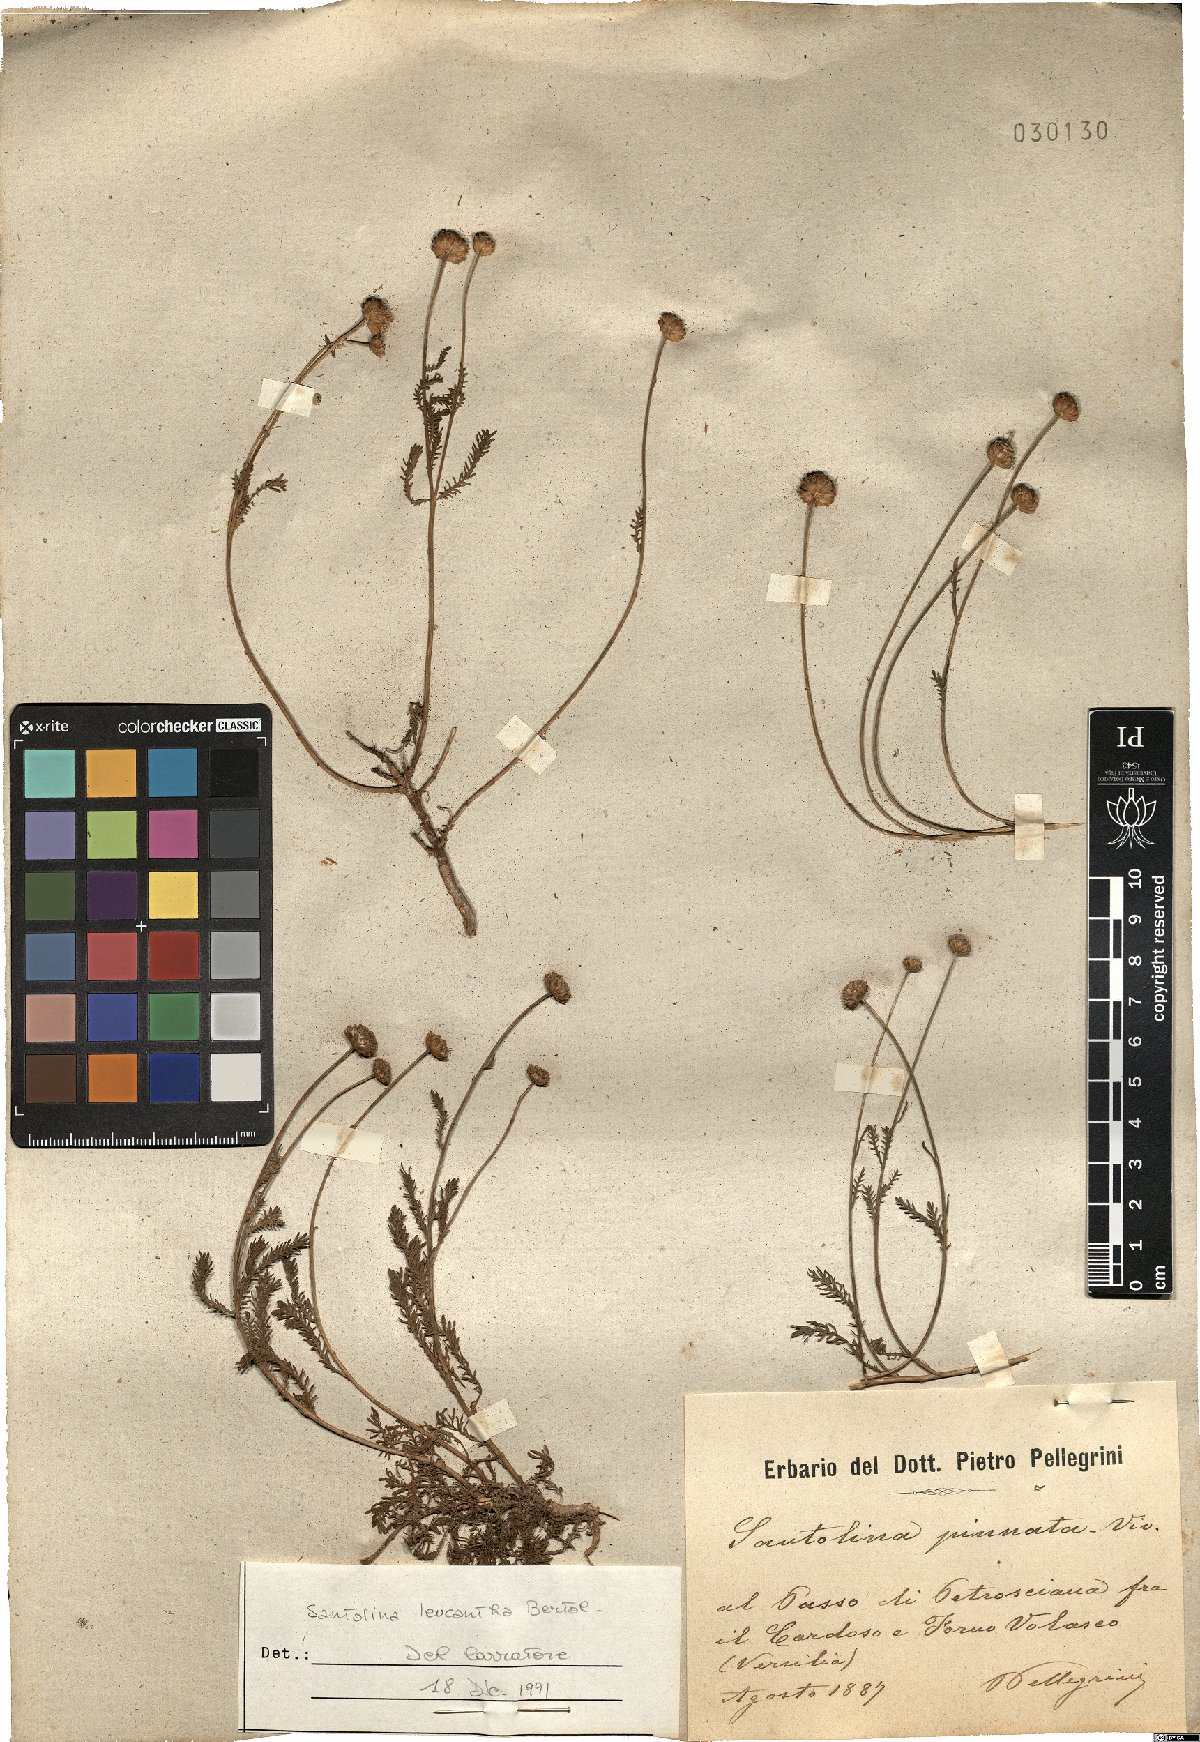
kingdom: Plantae
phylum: Tracheophyta
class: Magnoliopsida
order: Asterales
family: Asteraceae
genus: Santolina
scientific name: Santolina pinnata
